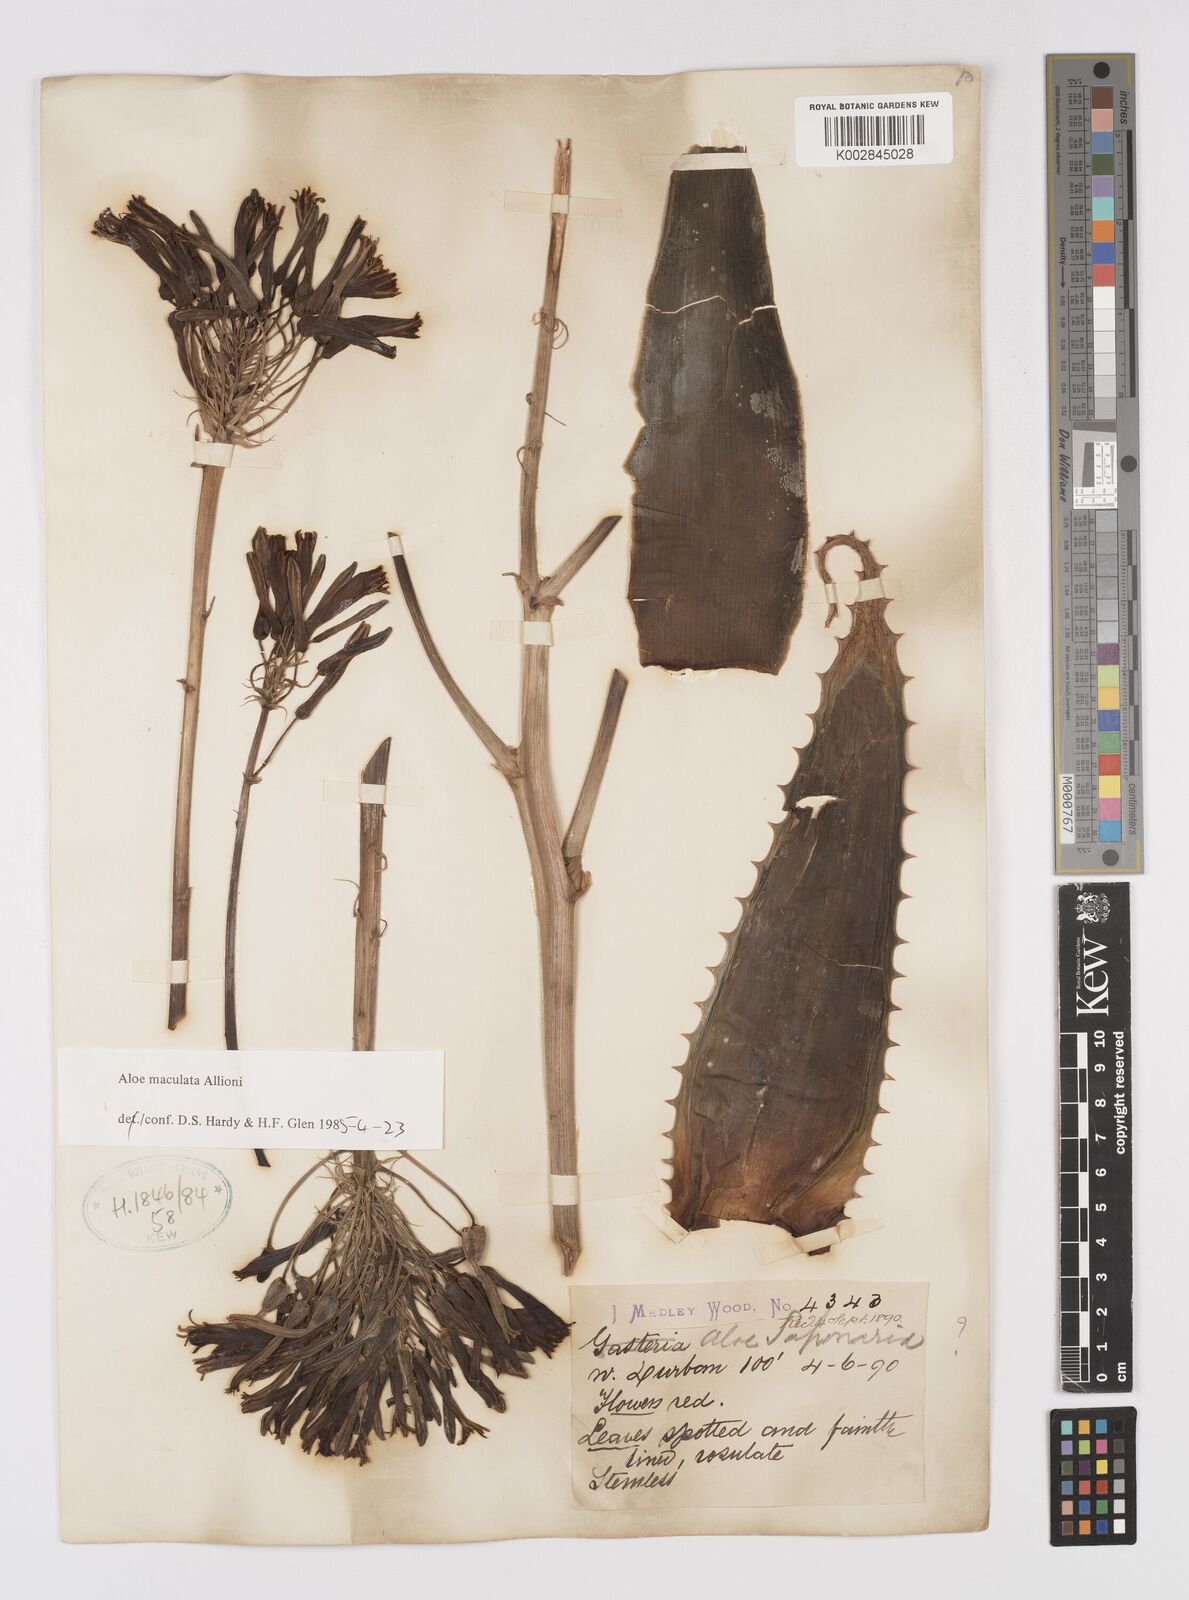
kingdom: Plantae
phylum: Tracheophyta
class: Liliopsida
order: Asparagales
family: Asphodelaceae
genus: Aloe
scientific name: Aloe maculata
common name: Broadleaf aloe
